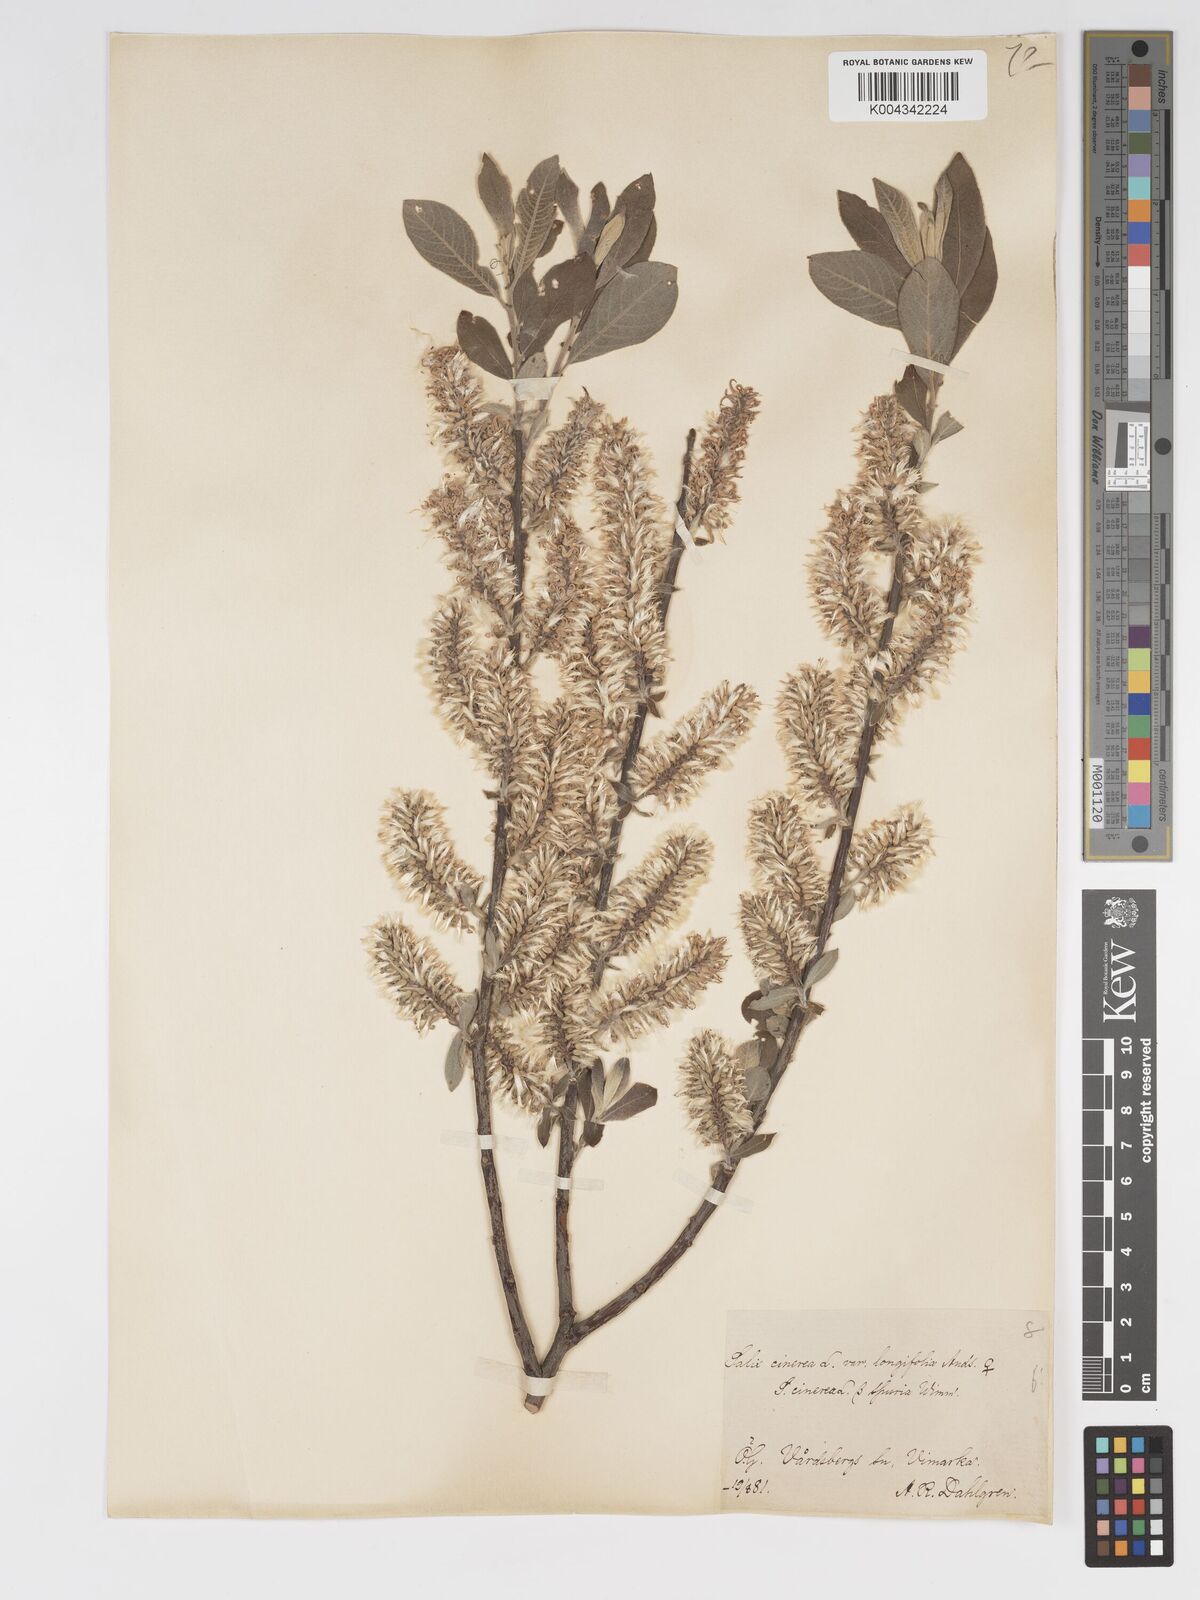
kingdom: Plantae
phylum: Tracheophyta
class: Magnoliopsida
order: Malpighiales
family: Salicaceae
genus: Salix
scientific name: Salix
